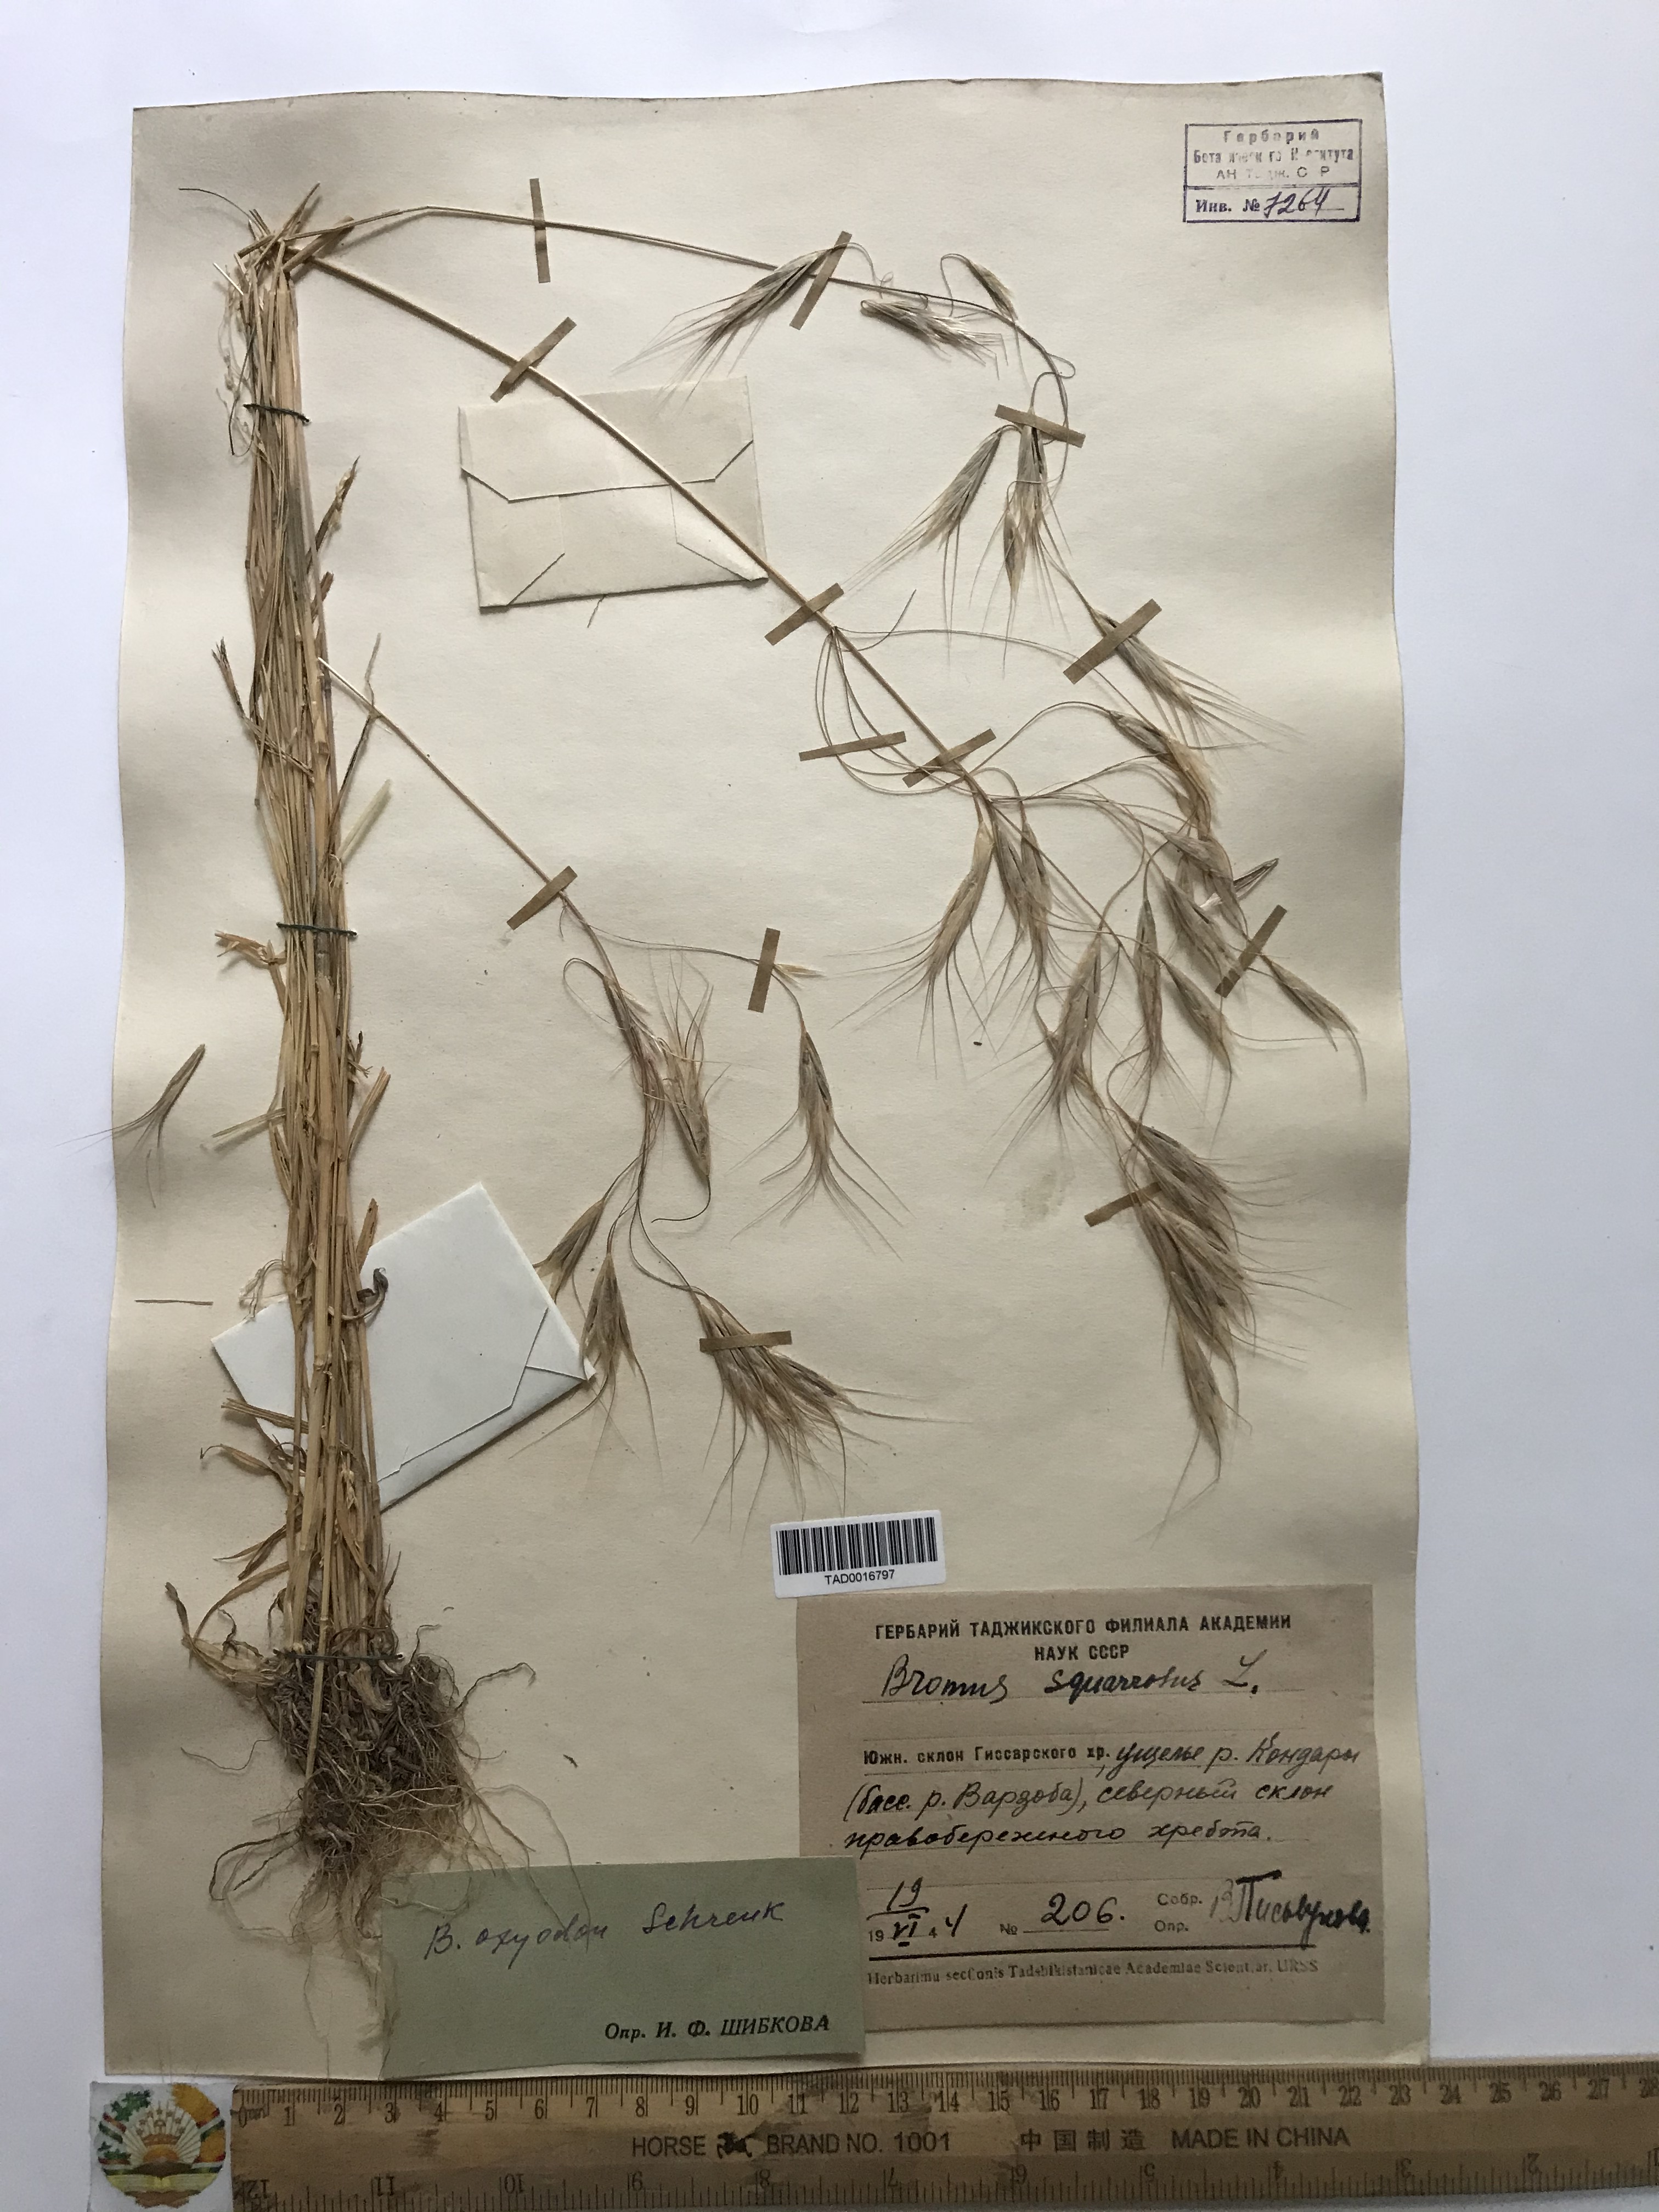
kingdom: Plantae
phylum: Tracheophyta
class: Liliopsida
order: Poales
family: Poaceae
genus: Bromus
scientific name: Bromus oxyodon
